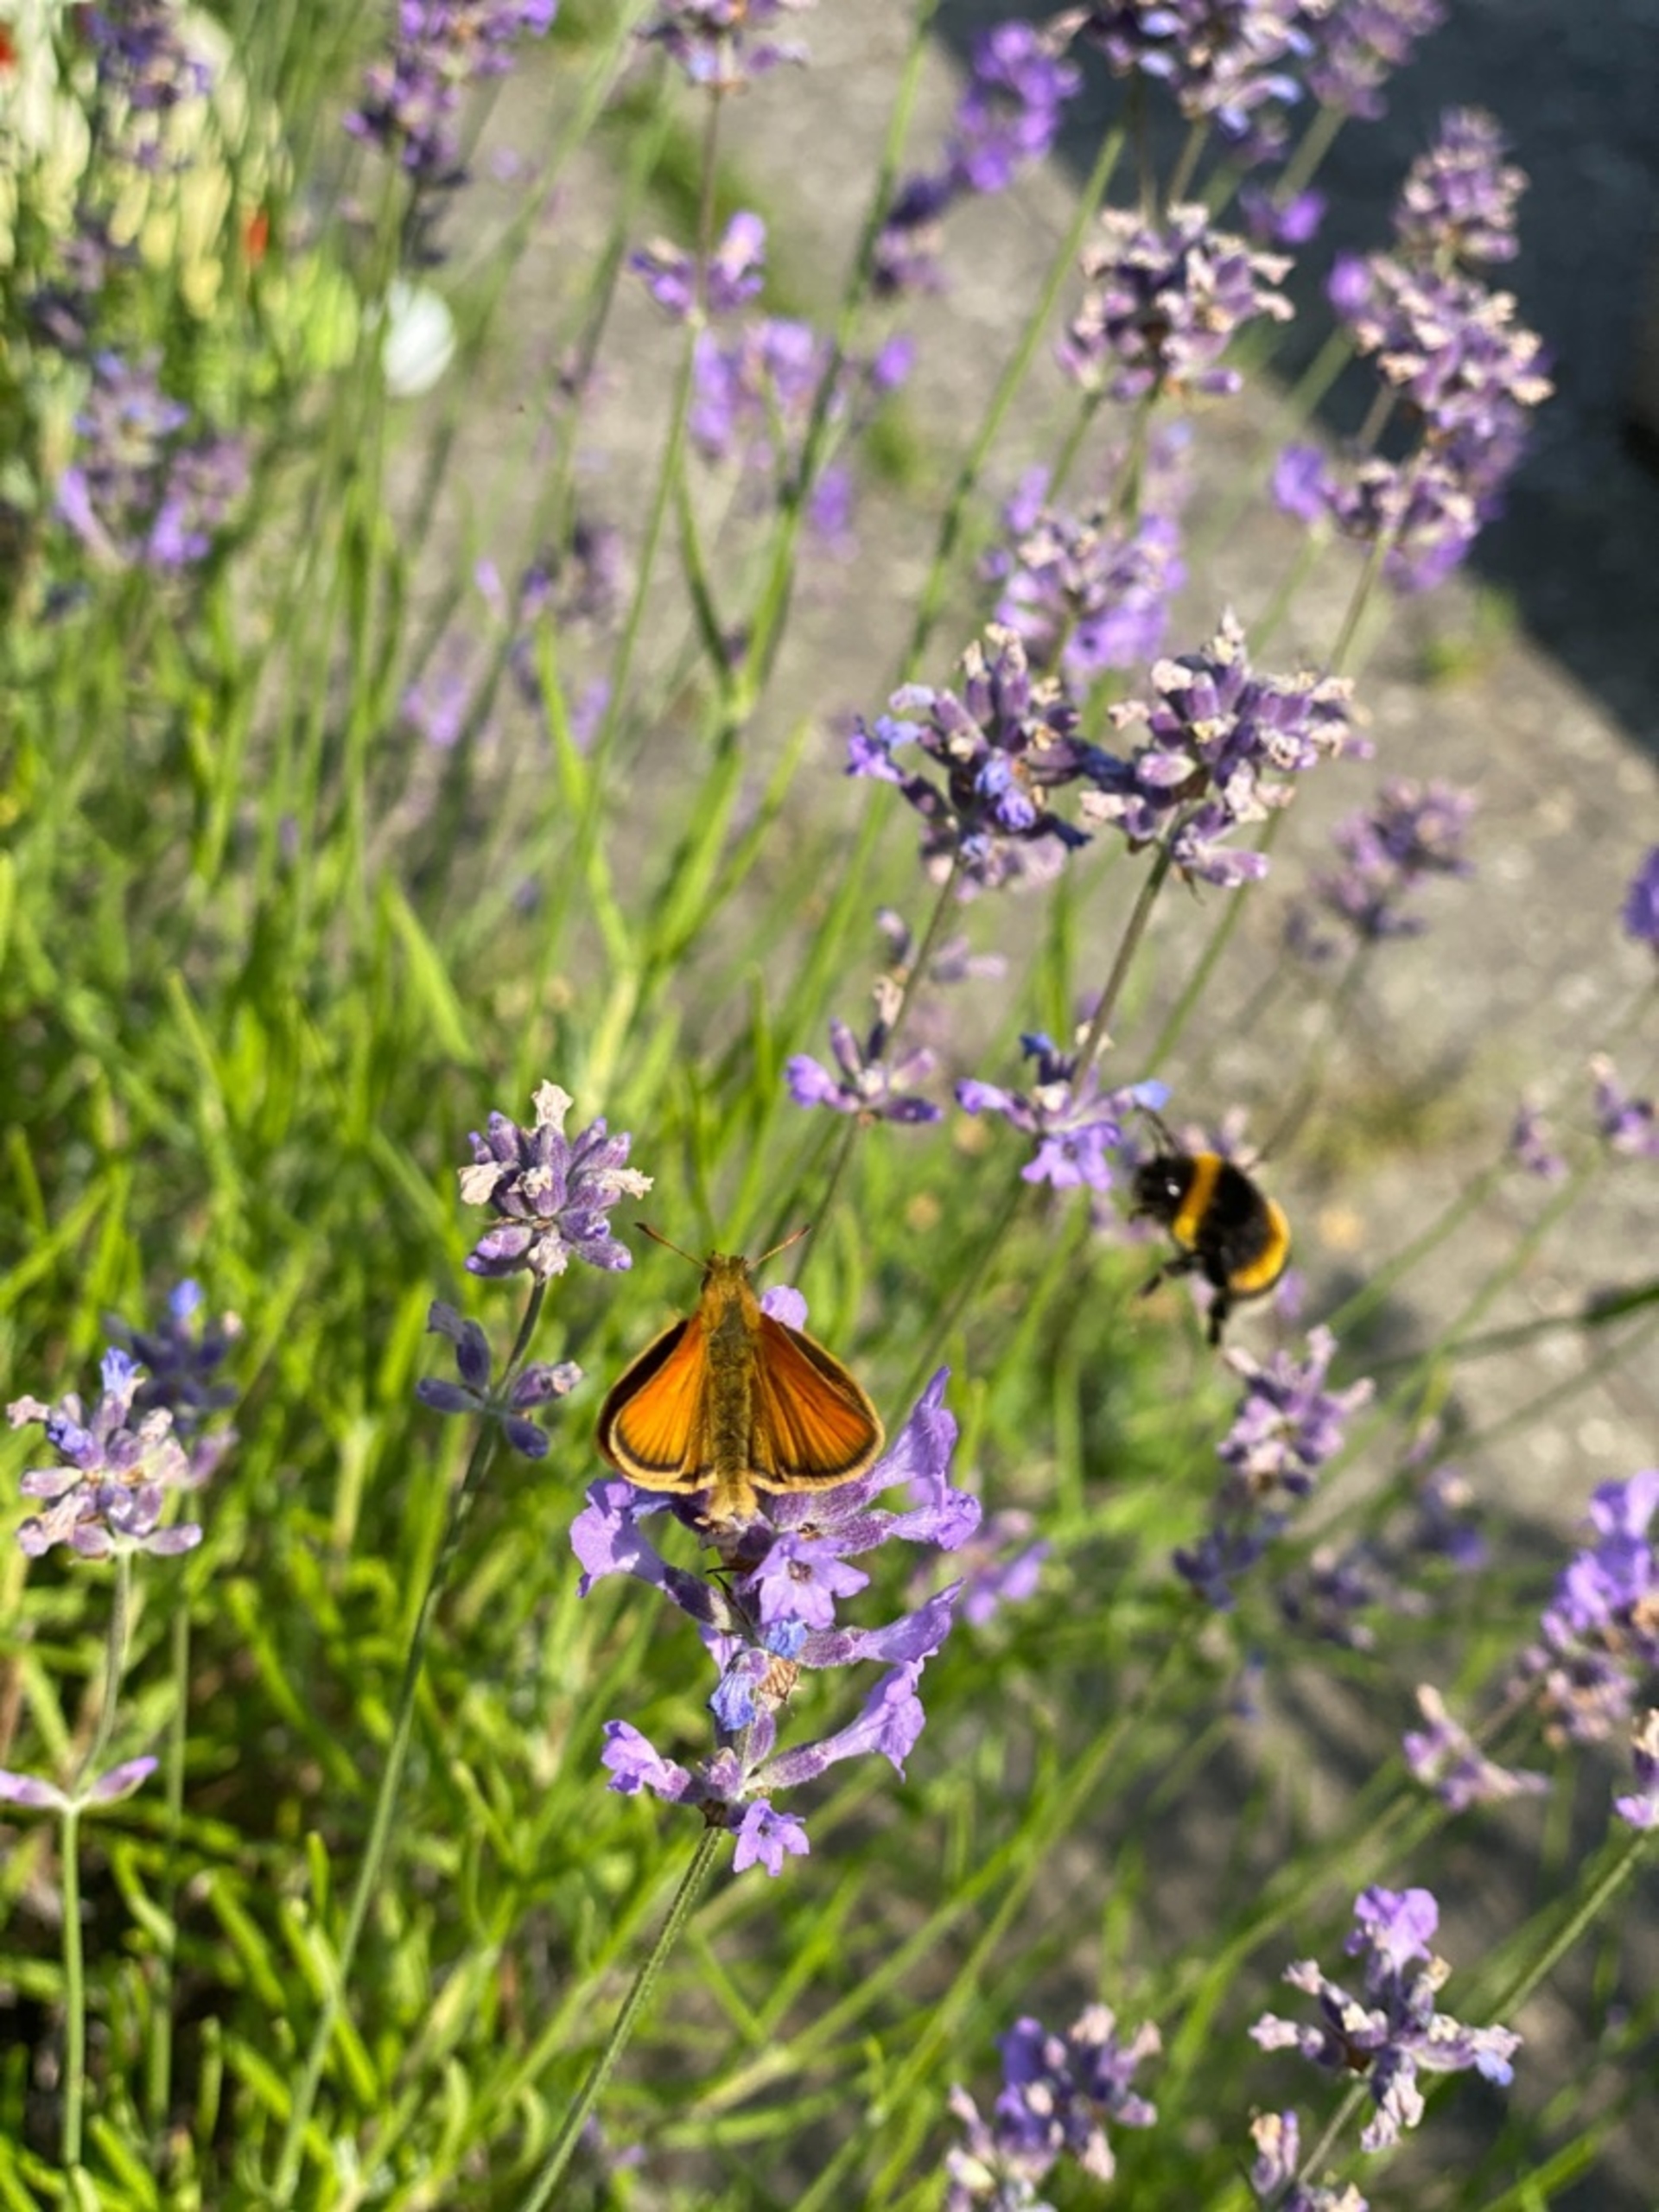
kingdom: Animalia
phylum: Arthropoda
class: Insecta
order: Lepidoptera
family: Hesperiidae
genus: Thymelicus
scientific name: Thymelicus lineola
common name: Stregbredpande
